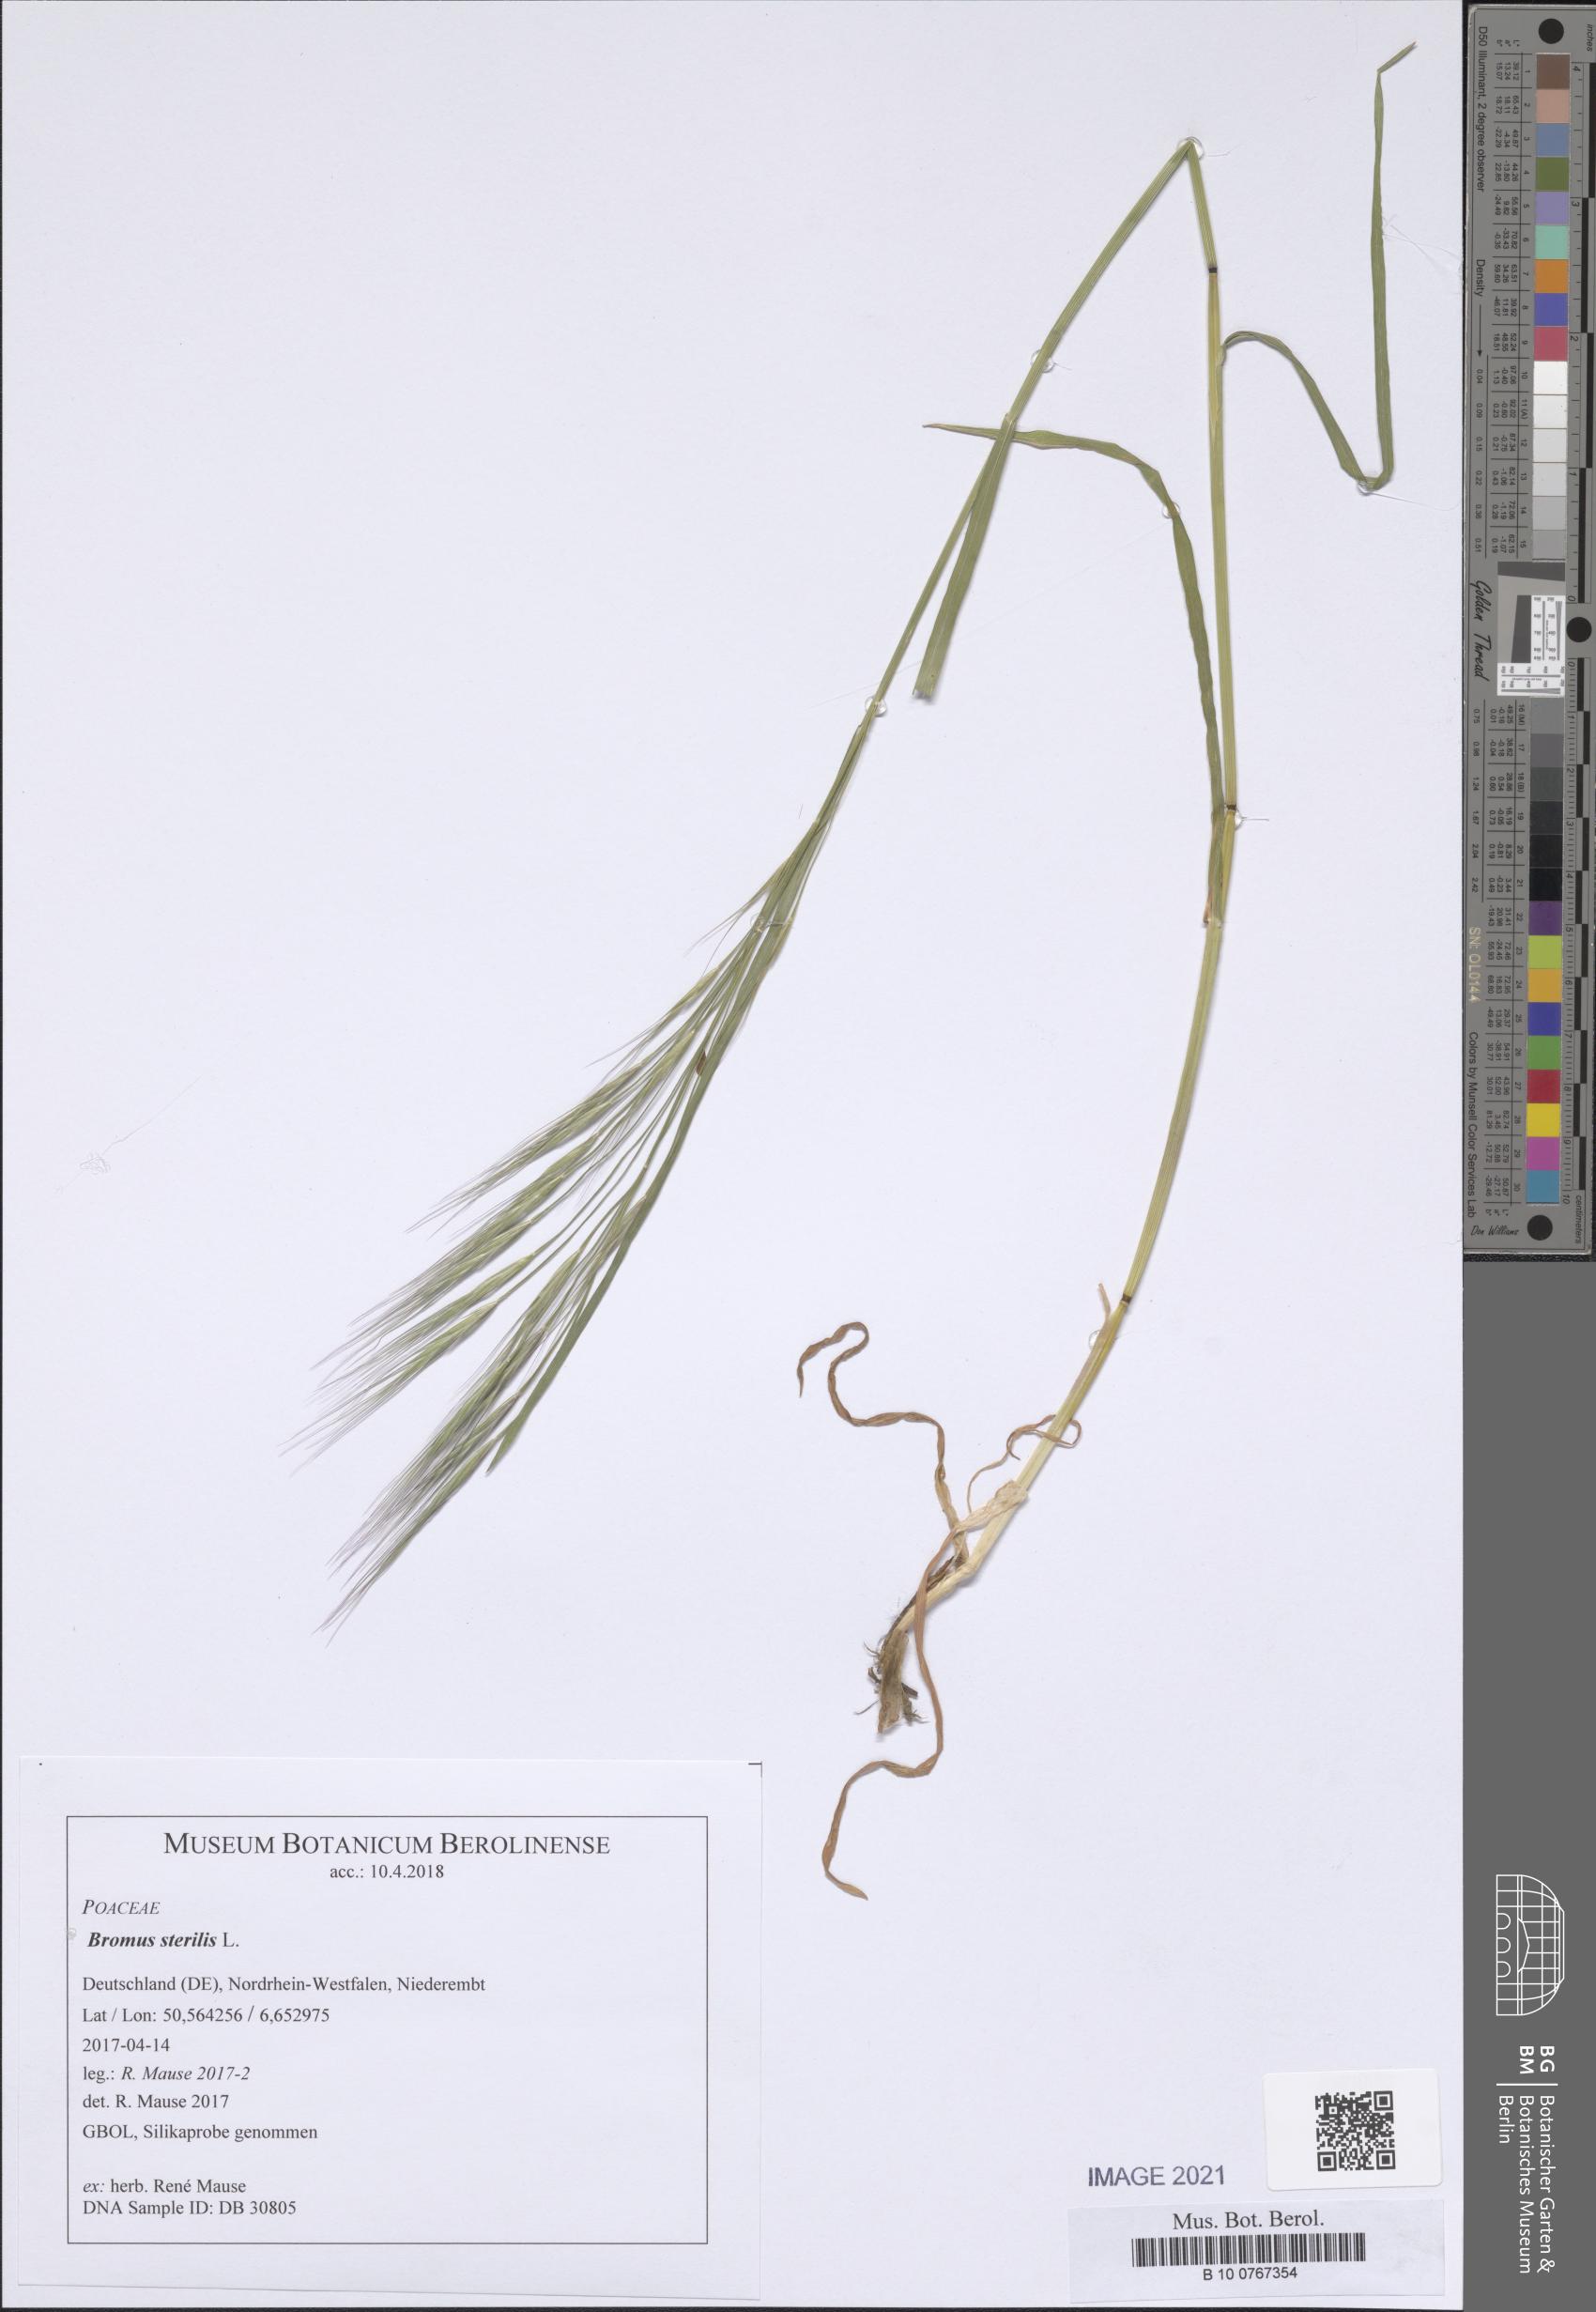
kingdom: Plantae
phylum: Tracheophyta
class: Liliopsida
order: Poales
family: Poaceae
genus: Bromus
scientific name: Bromus sterilis
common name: Poverty brome
